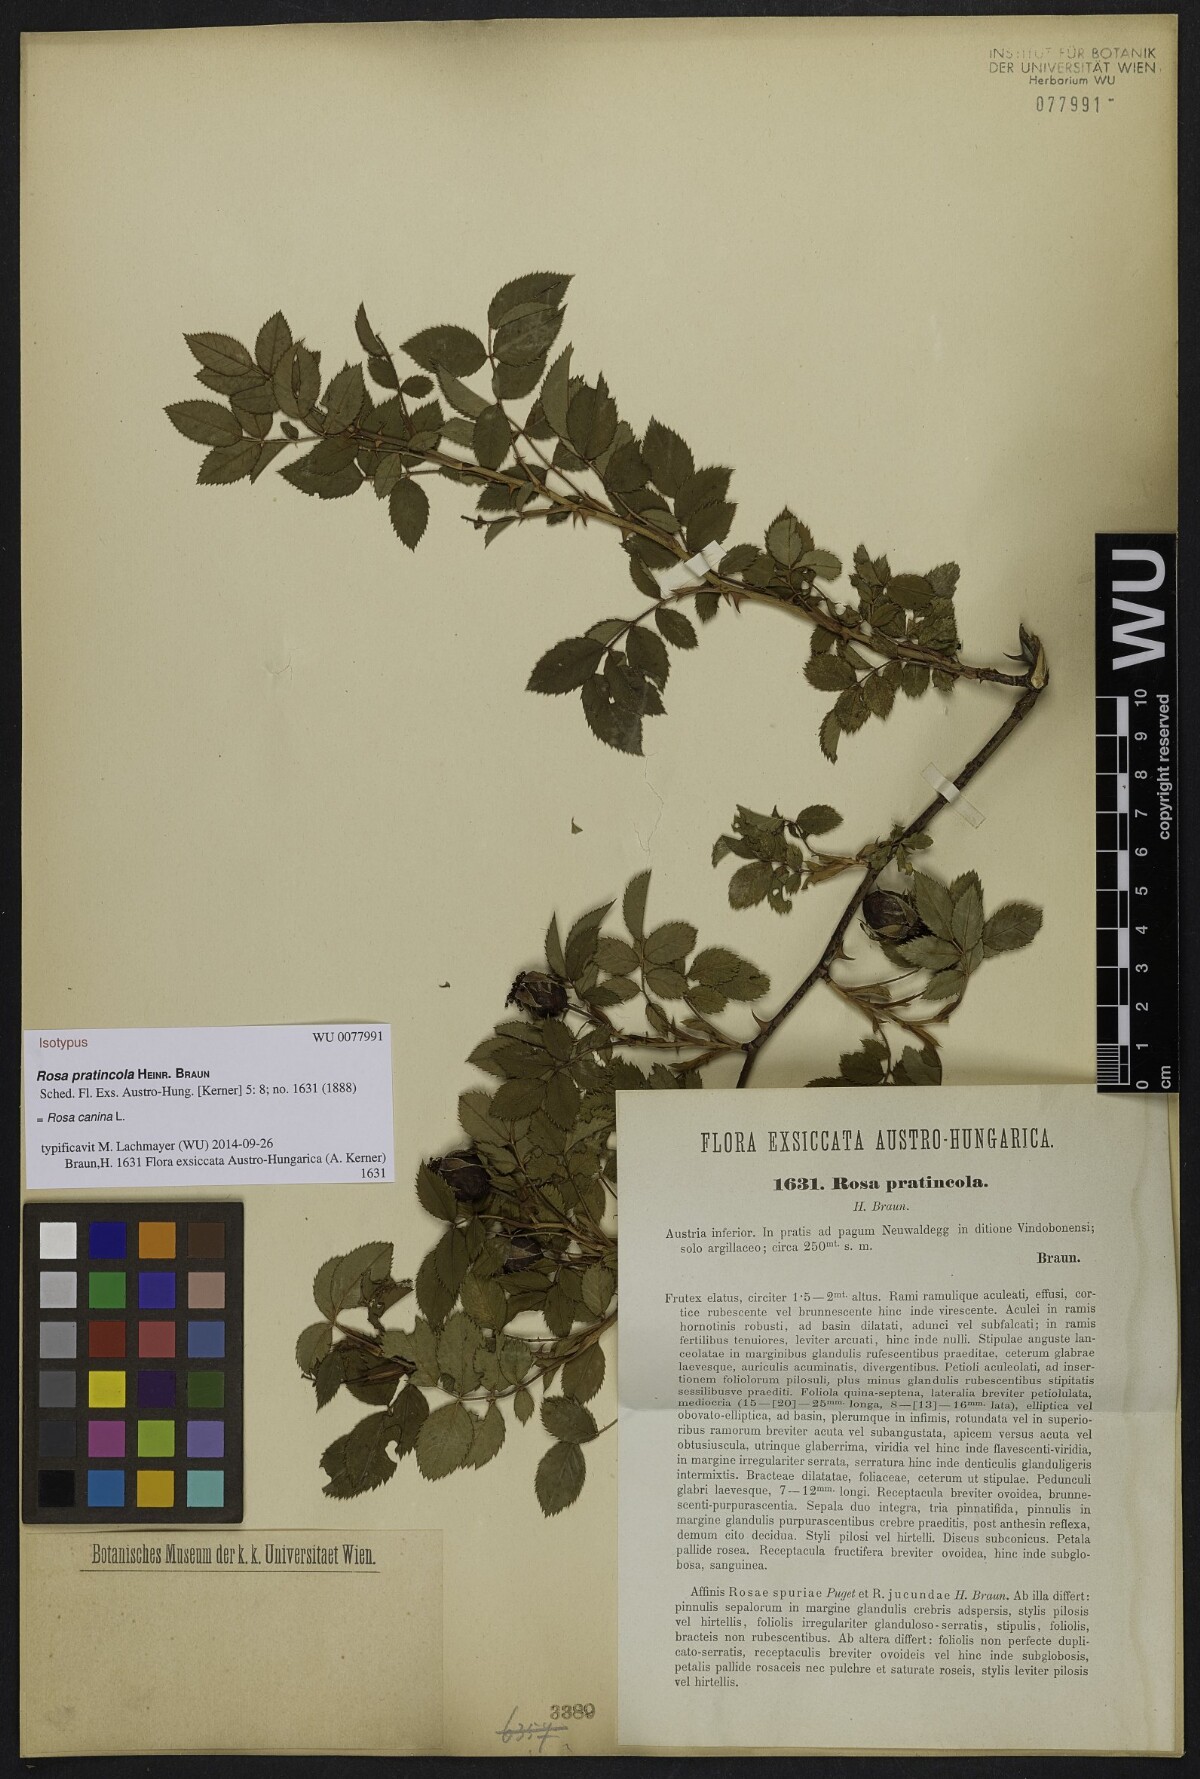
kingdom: Plantae
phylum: Tracheophyta
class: Magnoliopsida
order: Rosales
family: Rosaceae
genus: Rosa
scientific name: Rosa canina
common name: Dog rose
